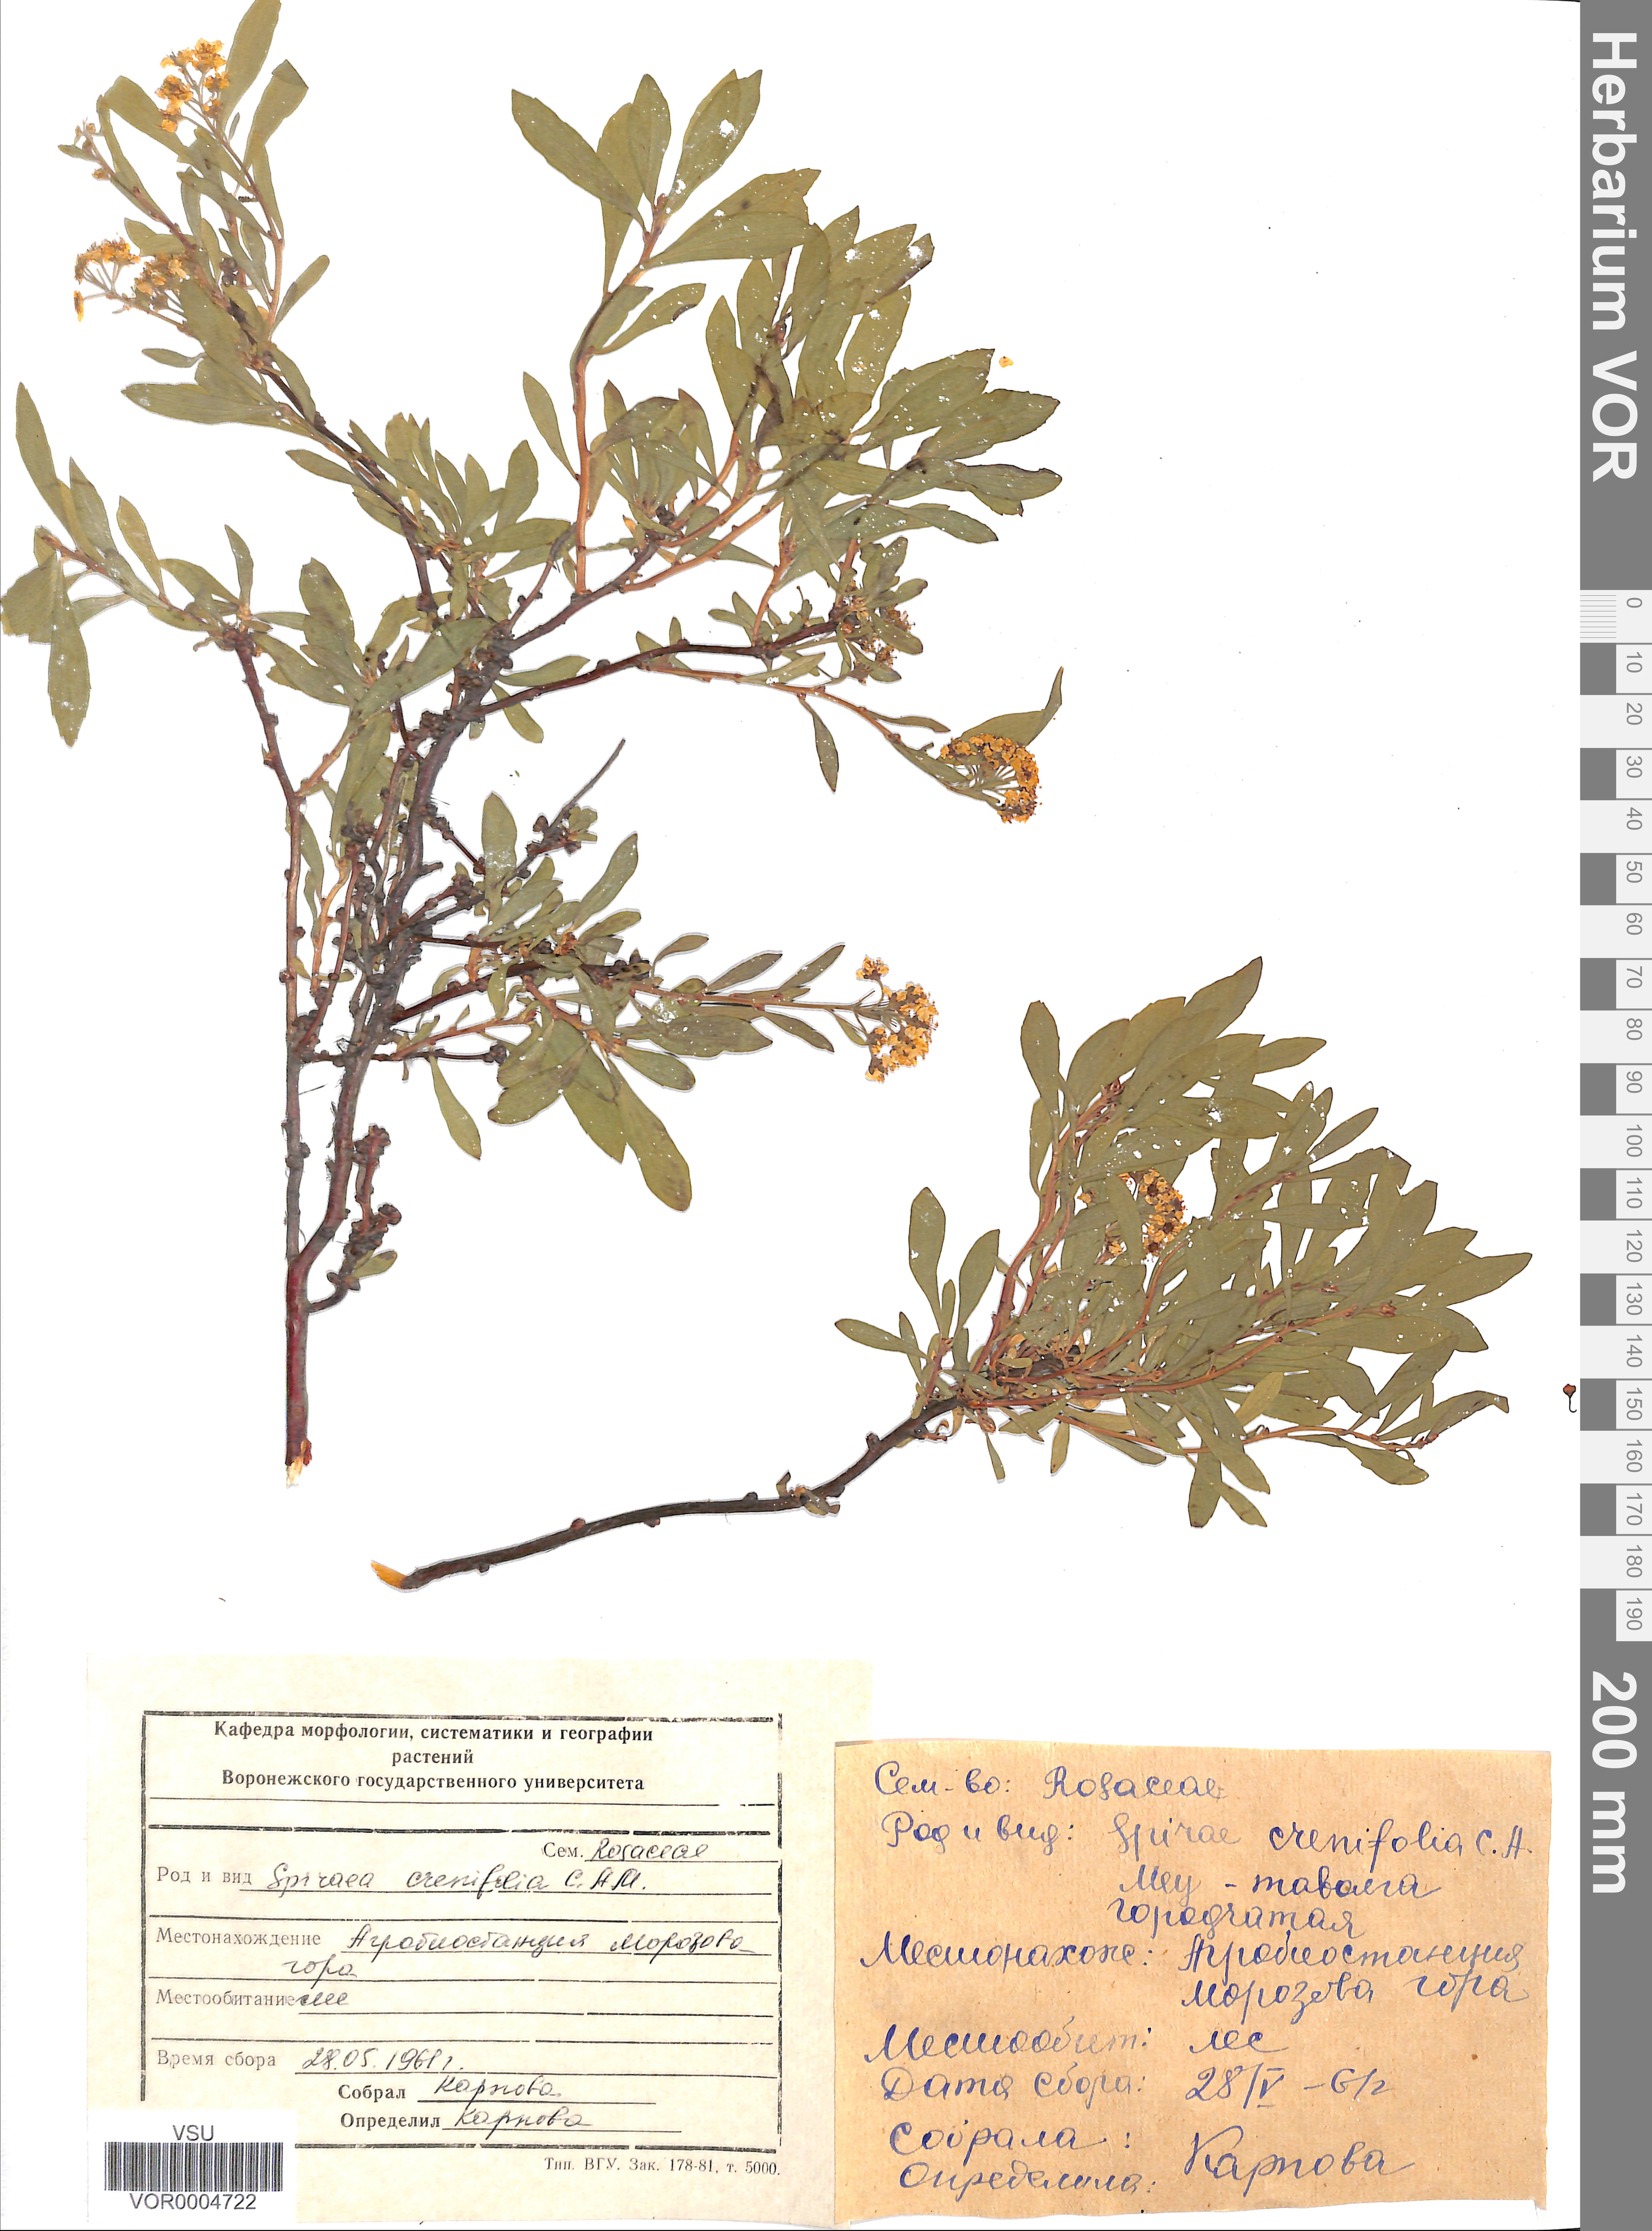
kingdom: Plantae
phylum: Tracheophyta
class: Magnoliopsida
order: Rosales
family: Rosaceae
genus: Spiraea
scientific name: Spiraea crenata
